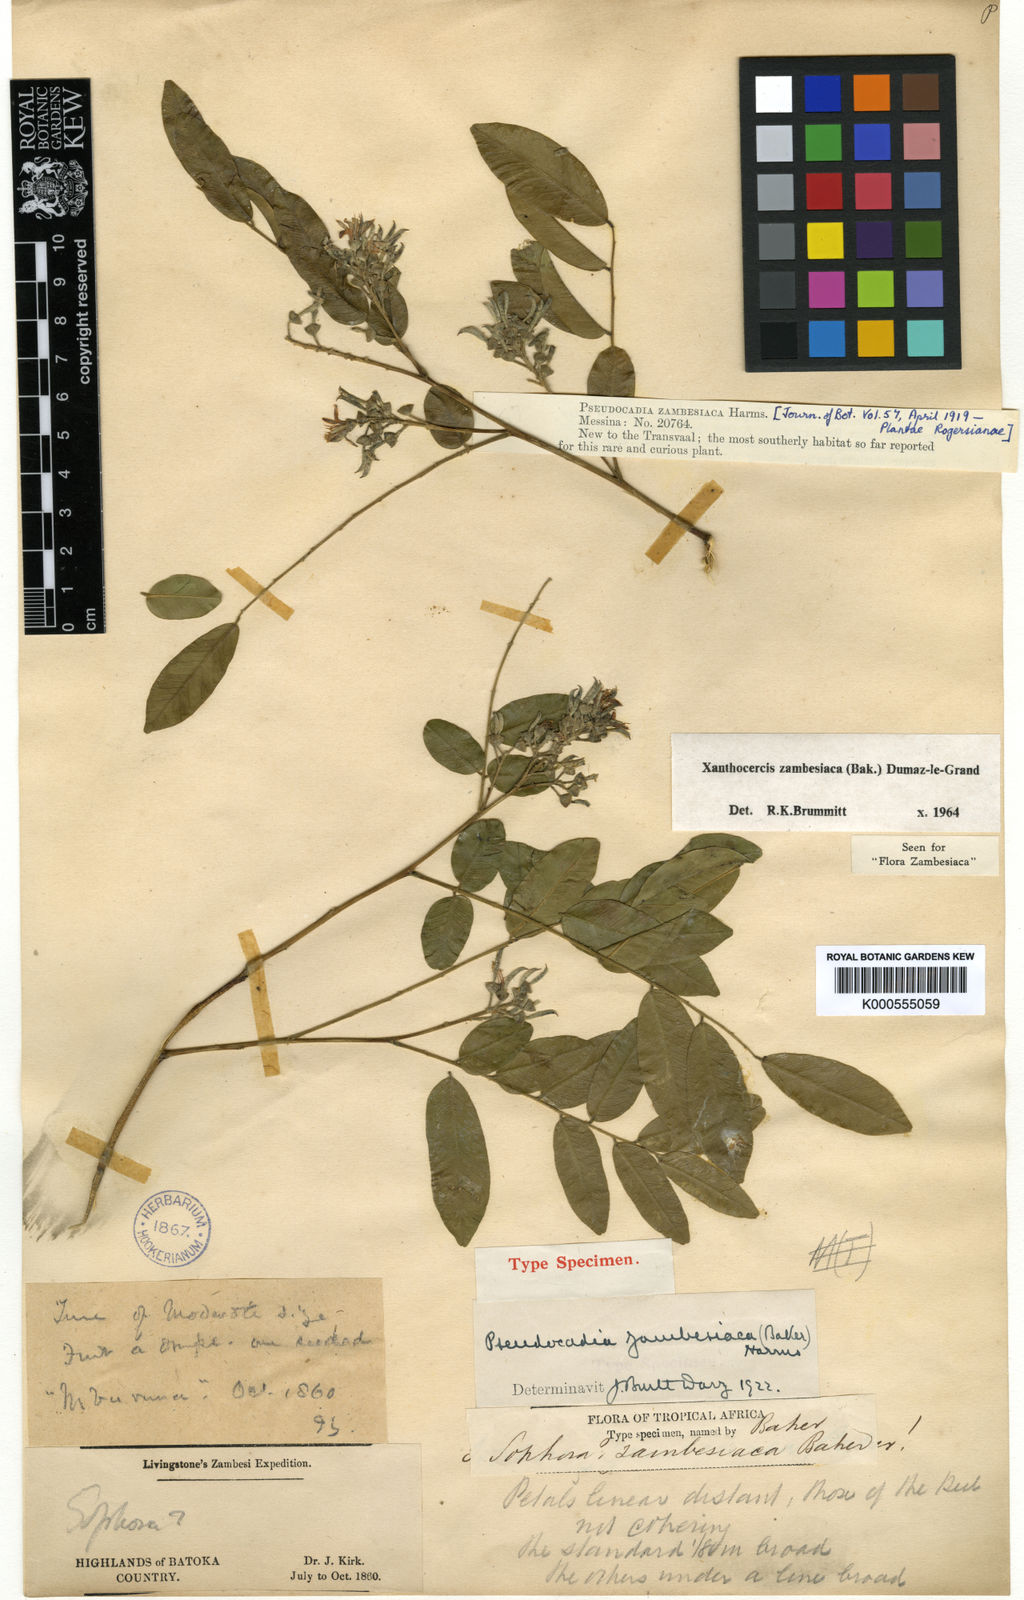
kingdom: Plantae
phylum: Tracheophyta
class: Magnoliopsida
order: Fabales
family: Fabaceae
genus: Xanthocercis
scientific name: Xanthocercis zambesiaca
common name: Nyala-tree
